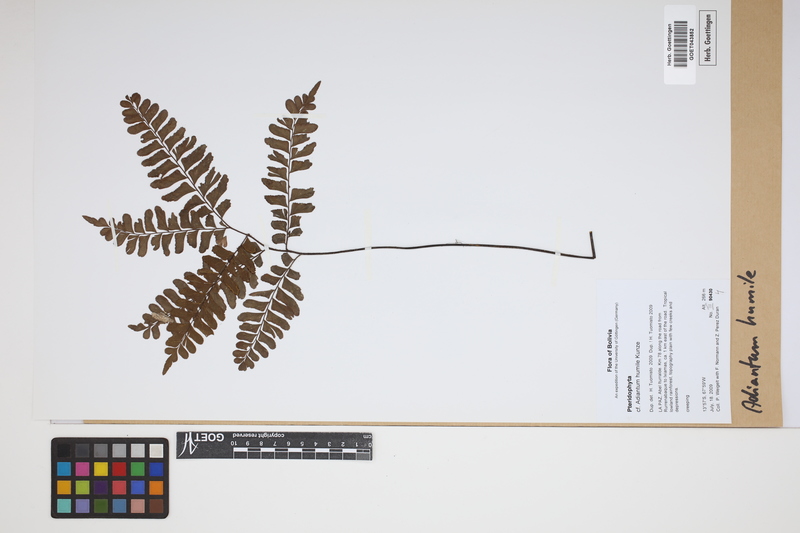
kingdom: Plantae
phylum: Tracheophyta
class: Polypodiopsida
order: Polypodiales
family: Pteridaceae
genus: Adiantum
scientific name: Adiantum humile
